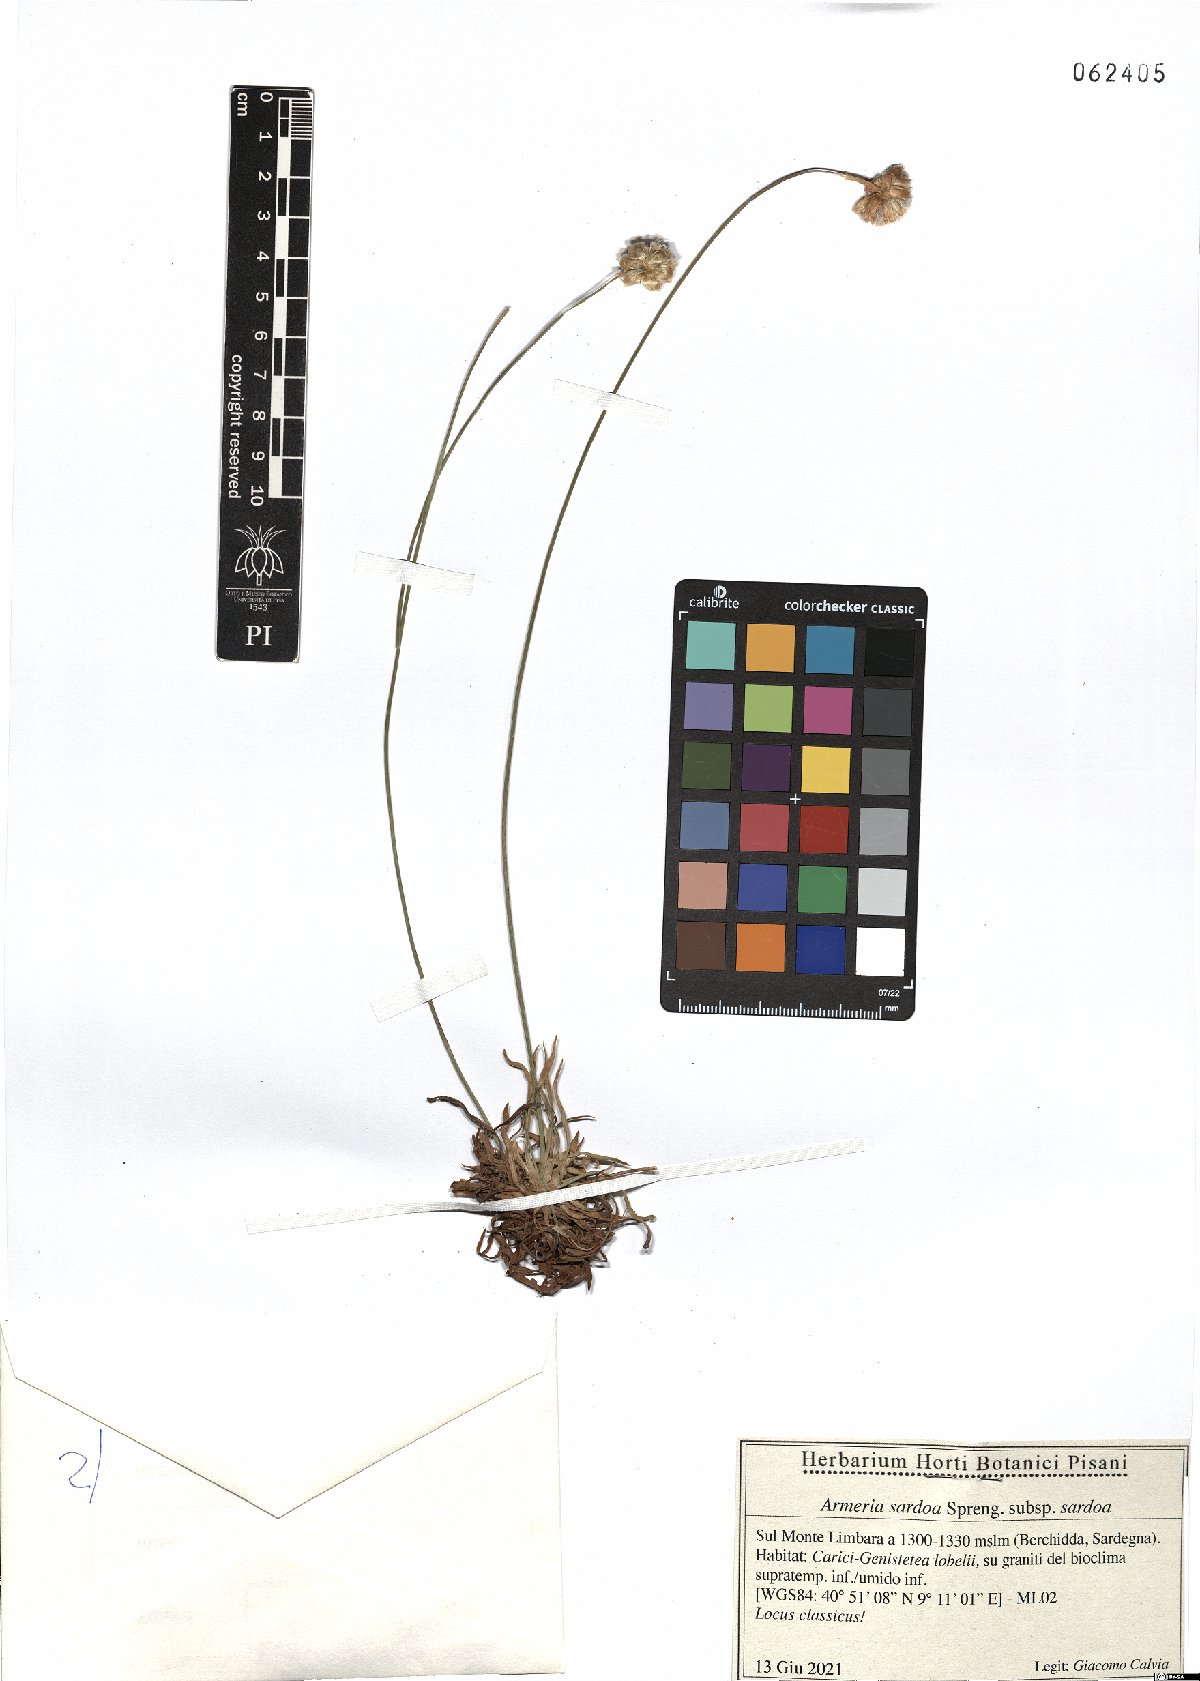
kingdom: Plantae
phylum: Tracheophyta
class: Magnoliopsida
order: Caryophyllales
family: Plumbaginaceae
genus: Armeria
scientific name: Armeria sardoa
